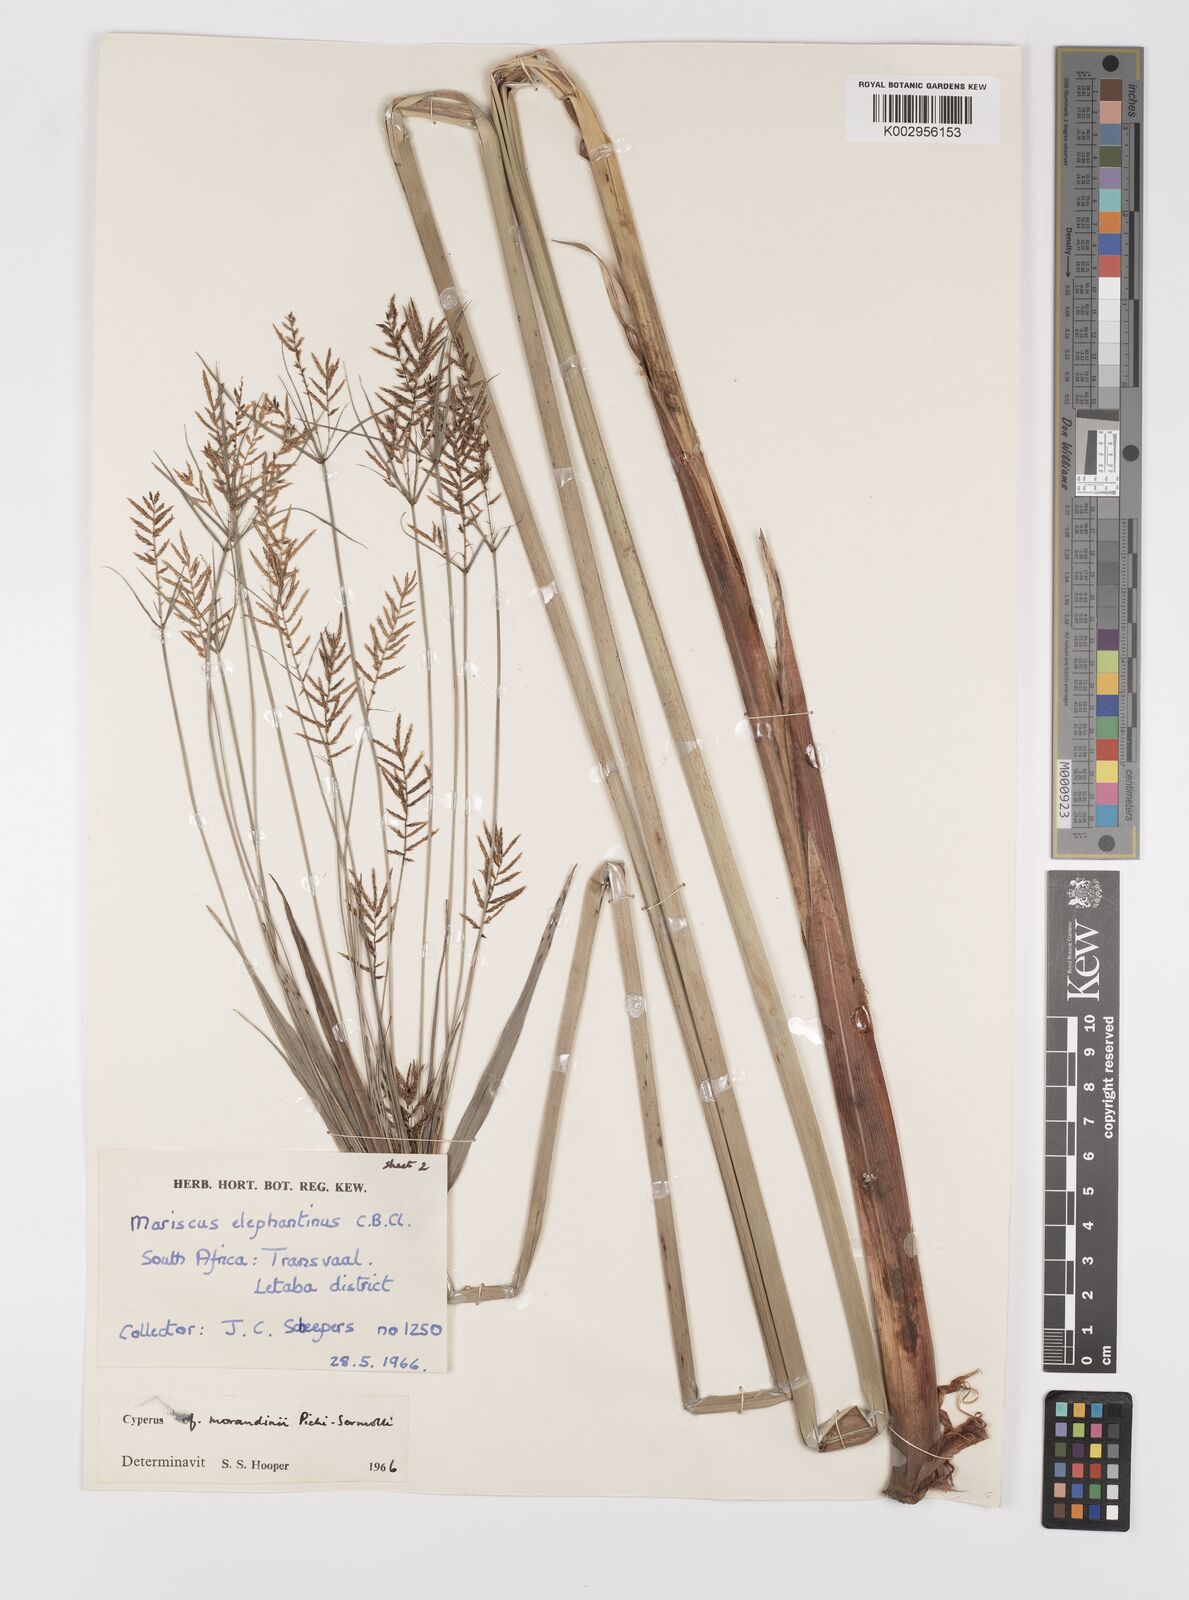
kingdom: Plantae
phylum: Tracheophyta
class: Liliopsida
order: Poales
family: Cyperaceae
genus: Cyperus
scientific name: Cyperus elephantinus
